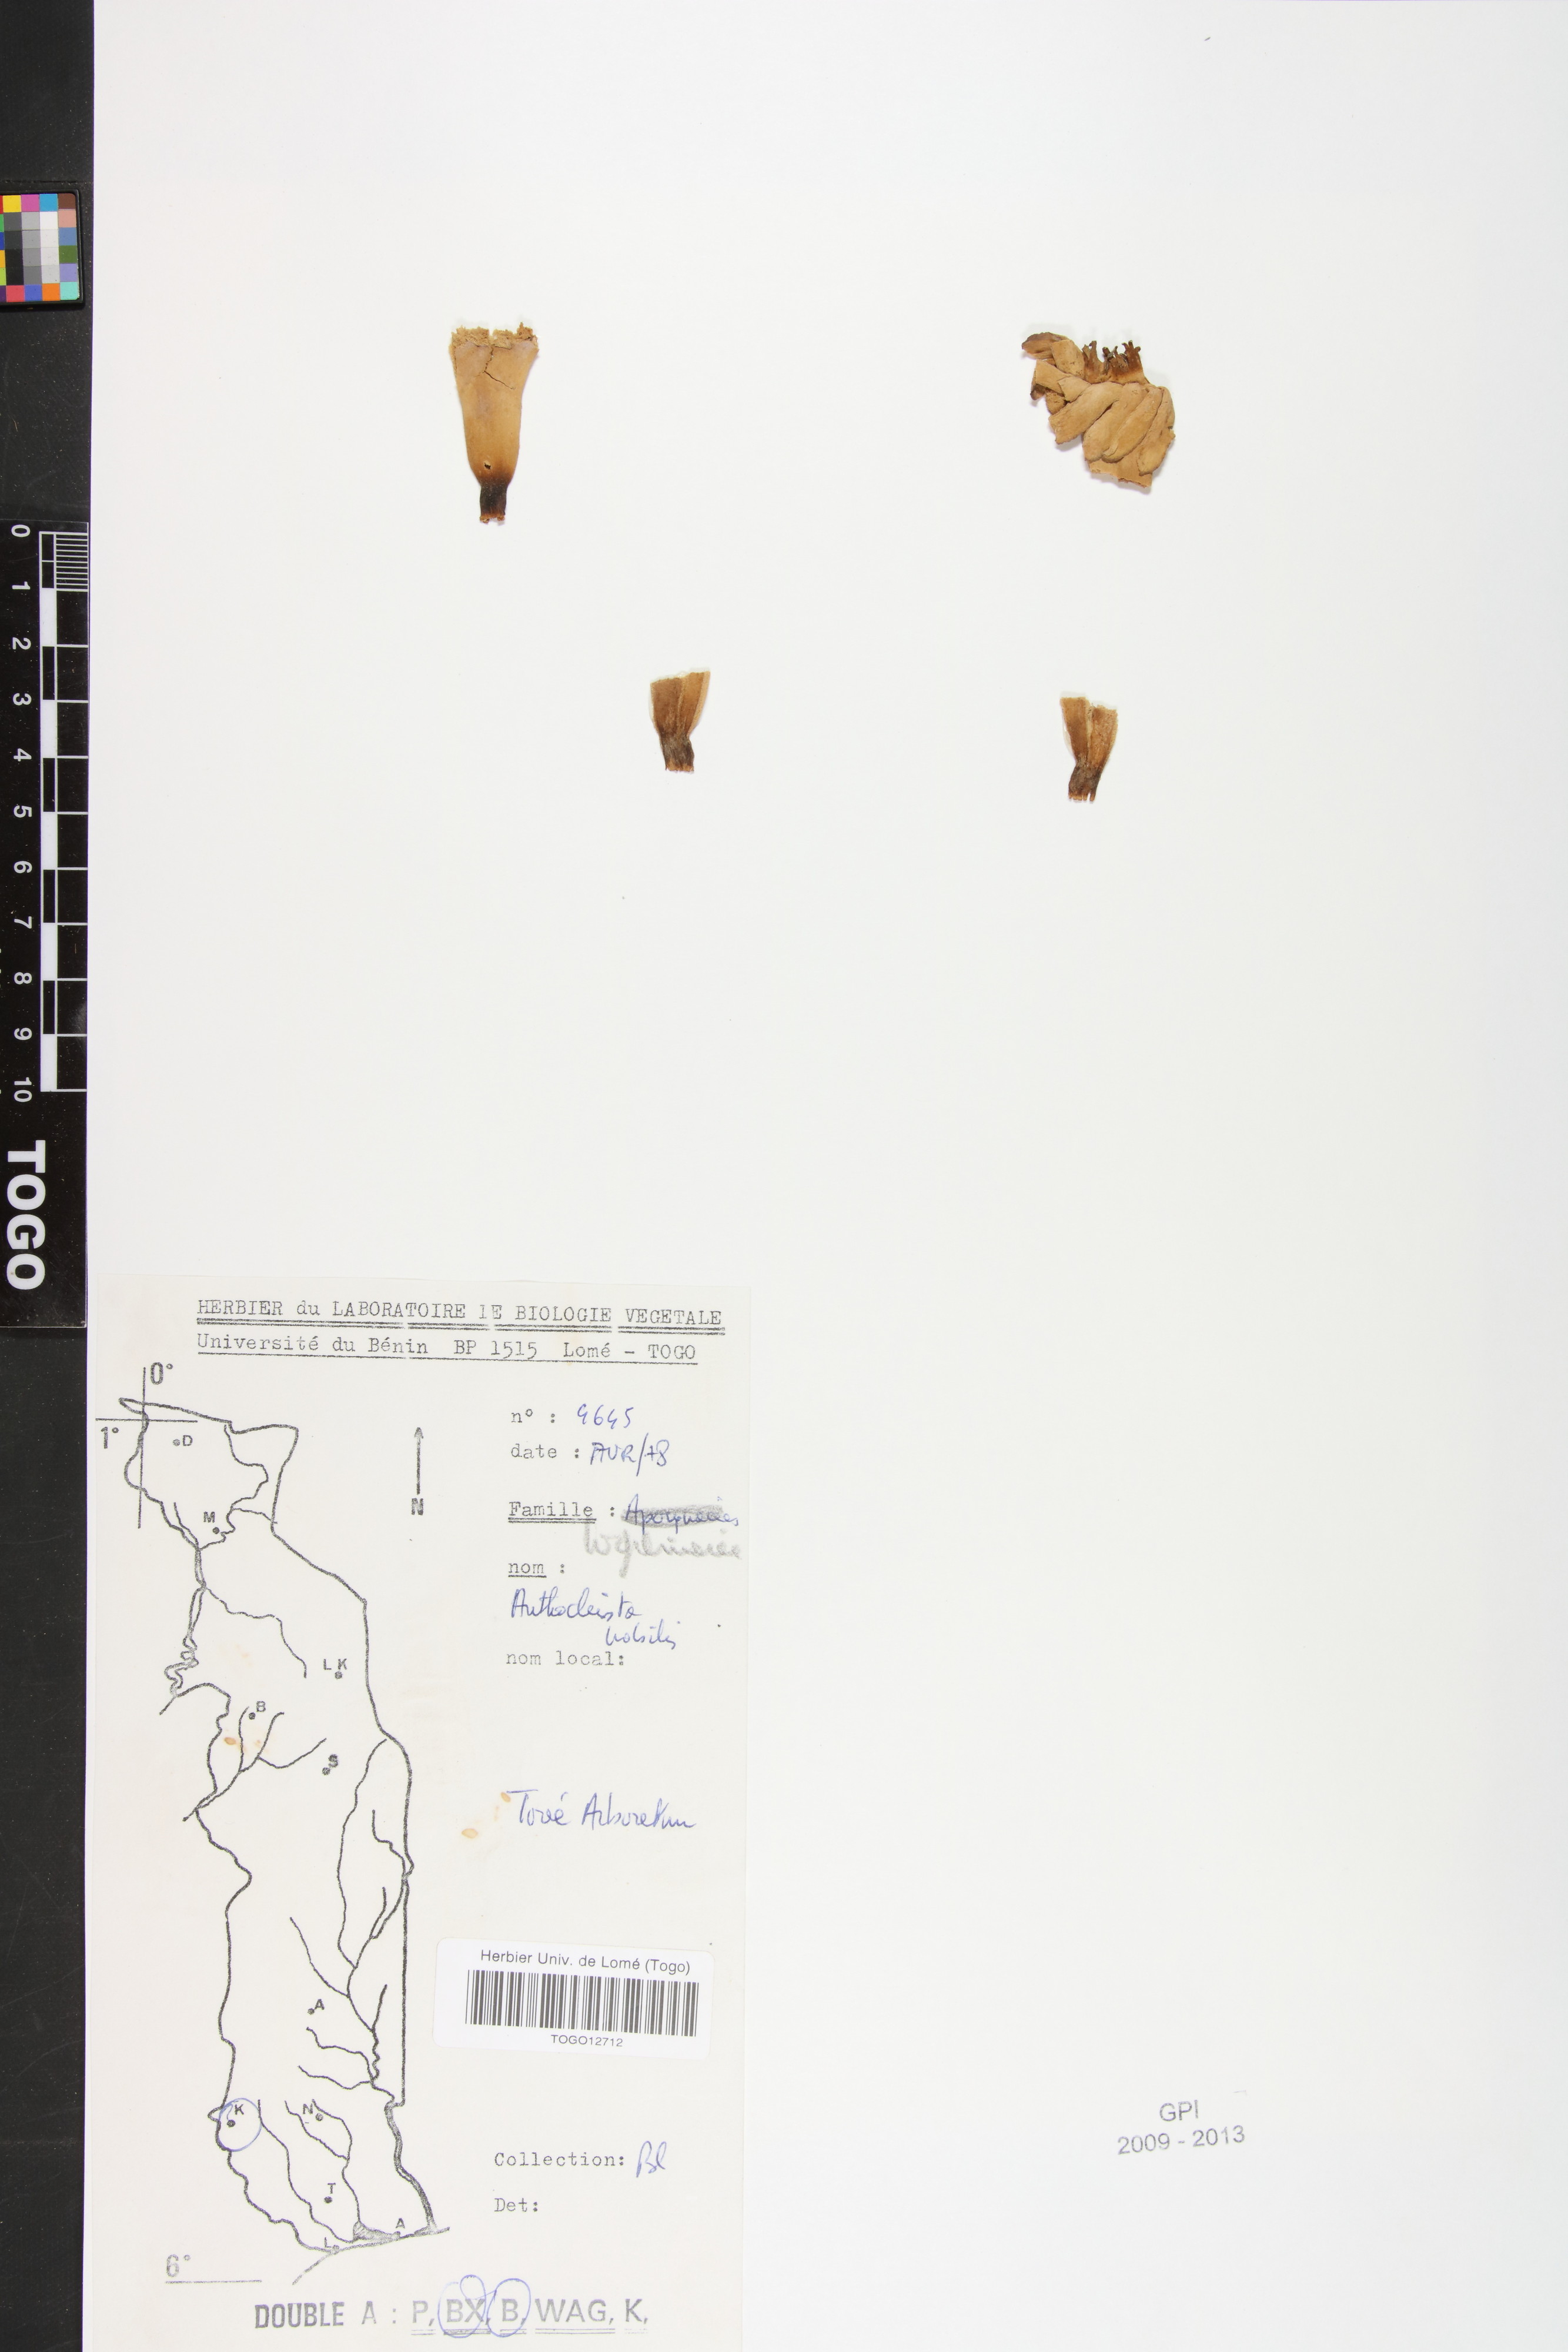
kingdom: Plantae
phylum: Tracheophyta
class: Magnoliopsida
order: Gentianales
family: Gentianaceae
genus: Anthocleista
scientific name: Anthocleista nobilis
